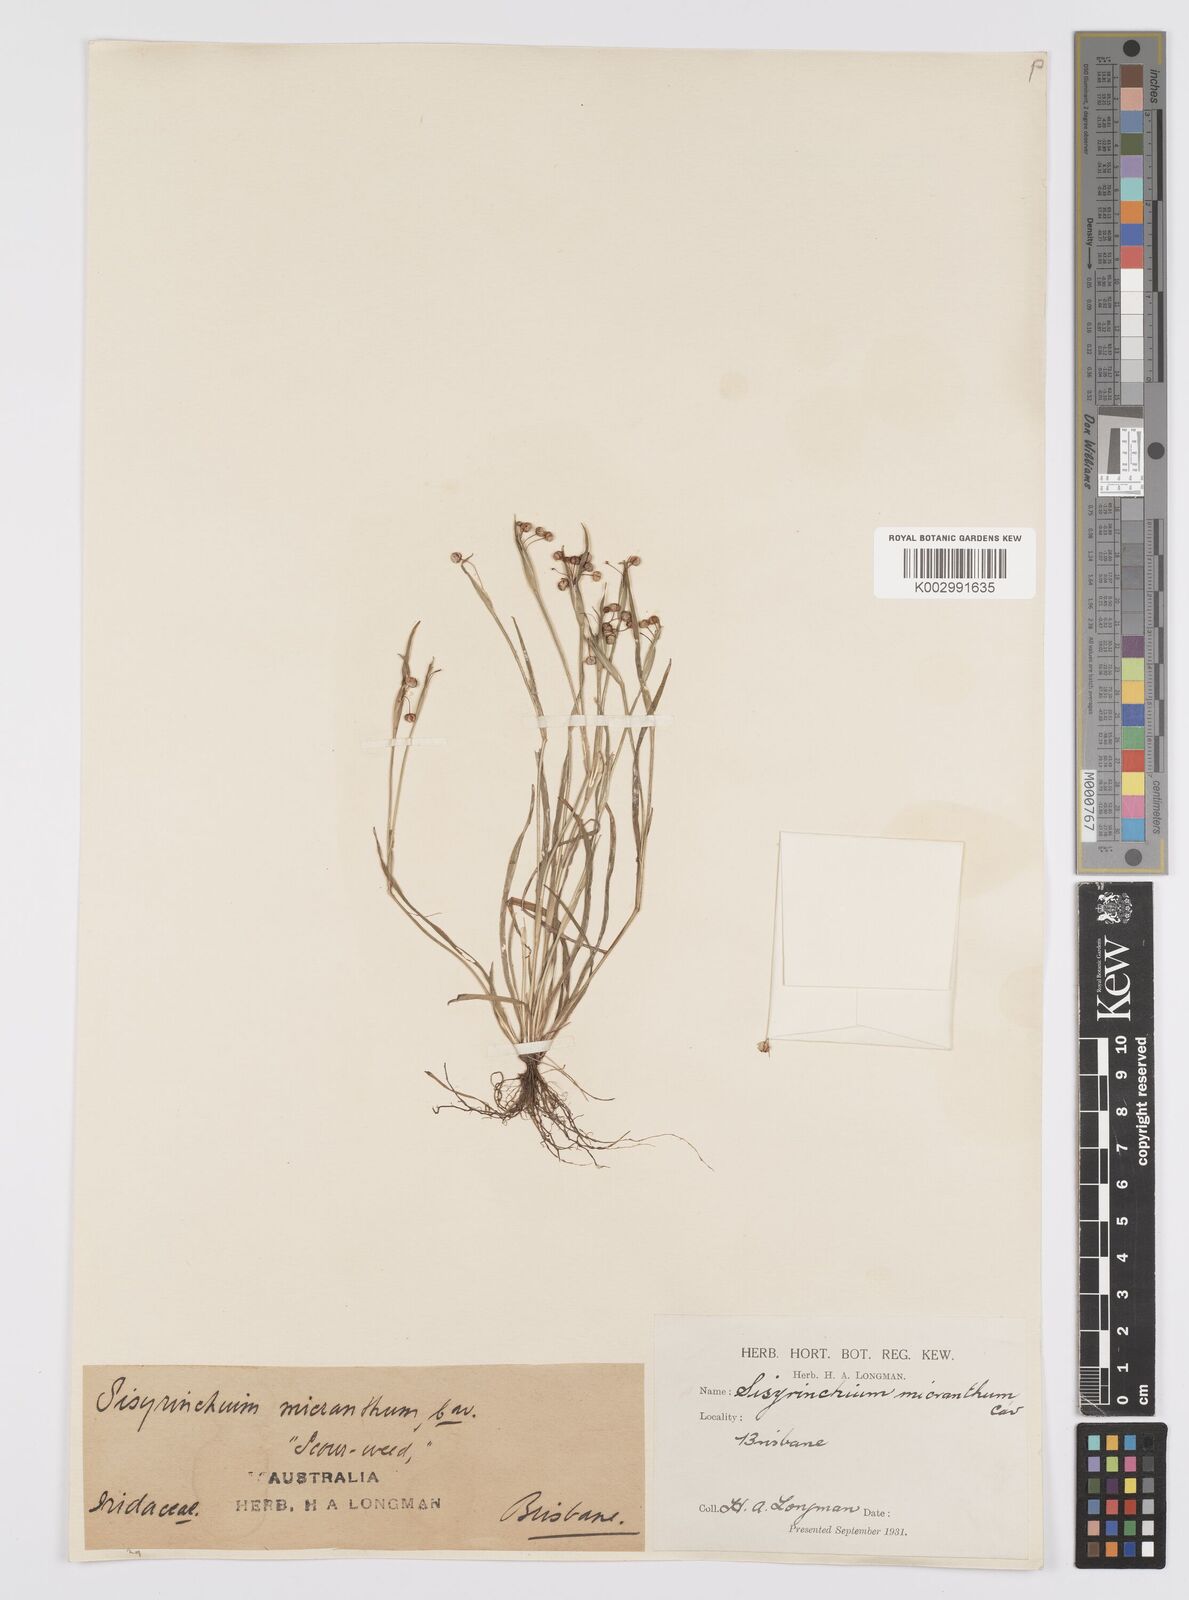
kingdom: Plantae
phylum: Tracheophyta
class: Liliopsida
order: Asparagales
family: Iridaceae
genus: Sisyrinchium
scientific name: Sisyrinchium micranthum
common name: Bermuda pigroot
